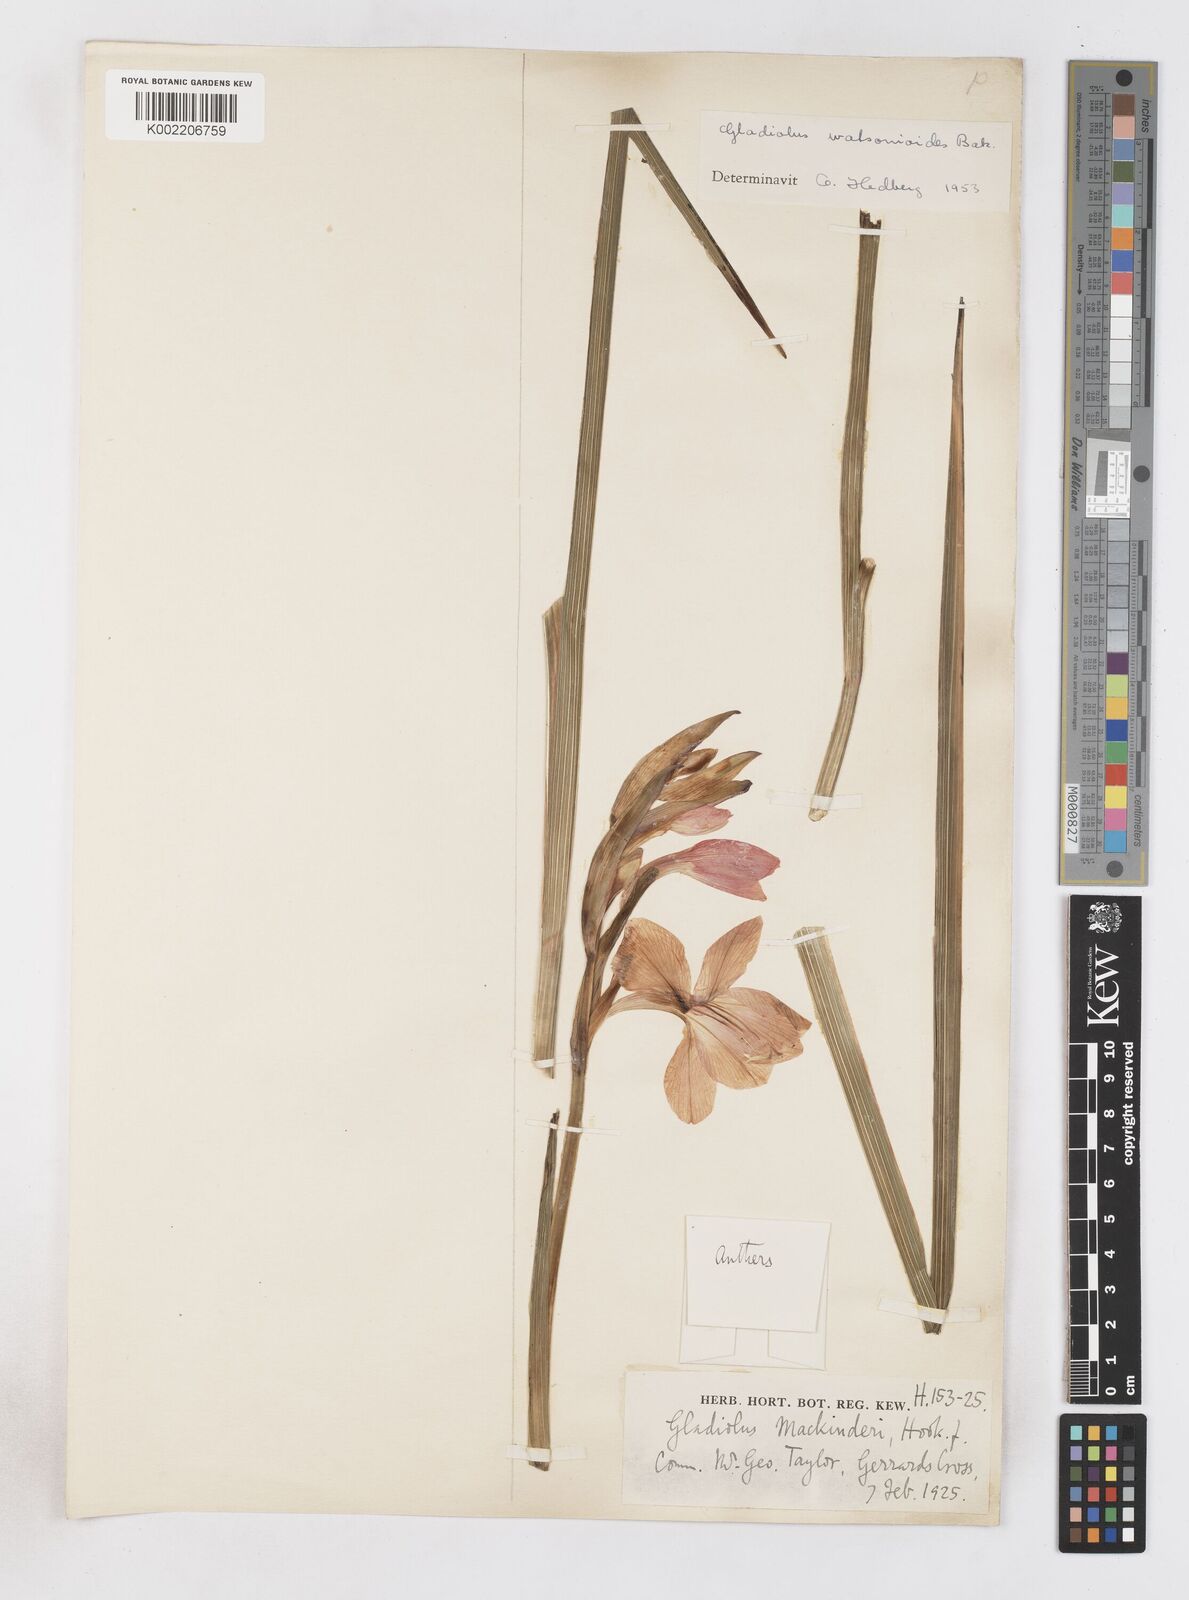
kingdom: Plantae
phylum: Tracheophyta
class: Liliopsida
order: Asparagales
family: Iridaceae
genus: Gladiolus
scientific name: Gladiolus watsonioides
